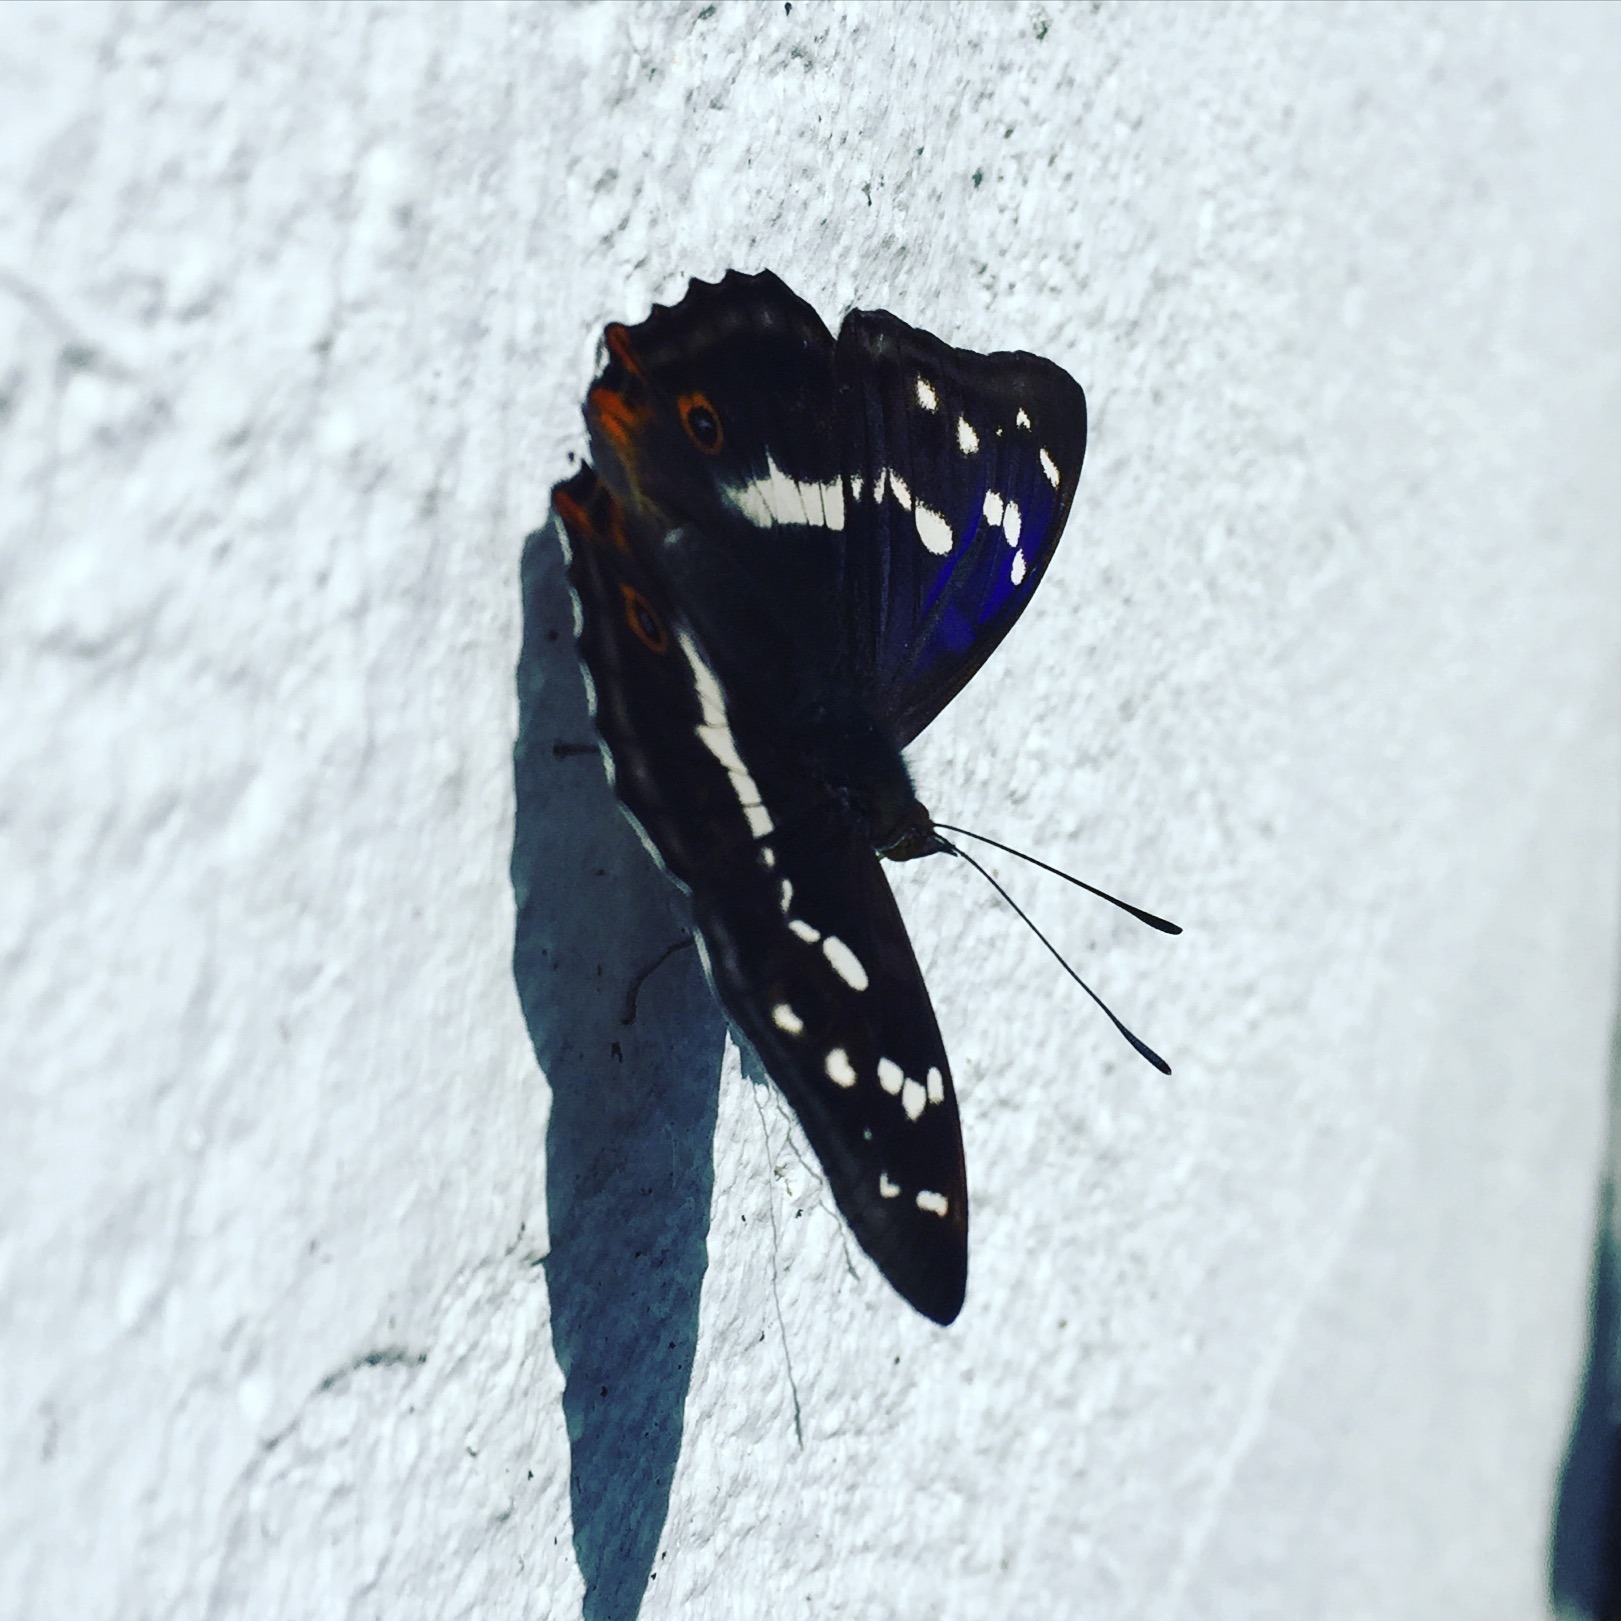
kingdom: Animalia
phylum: Arthropoda
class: Insecta
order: Lepidoptera
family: Nymphalidae
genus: Apatura
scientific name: Apatura iris
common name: Iris
